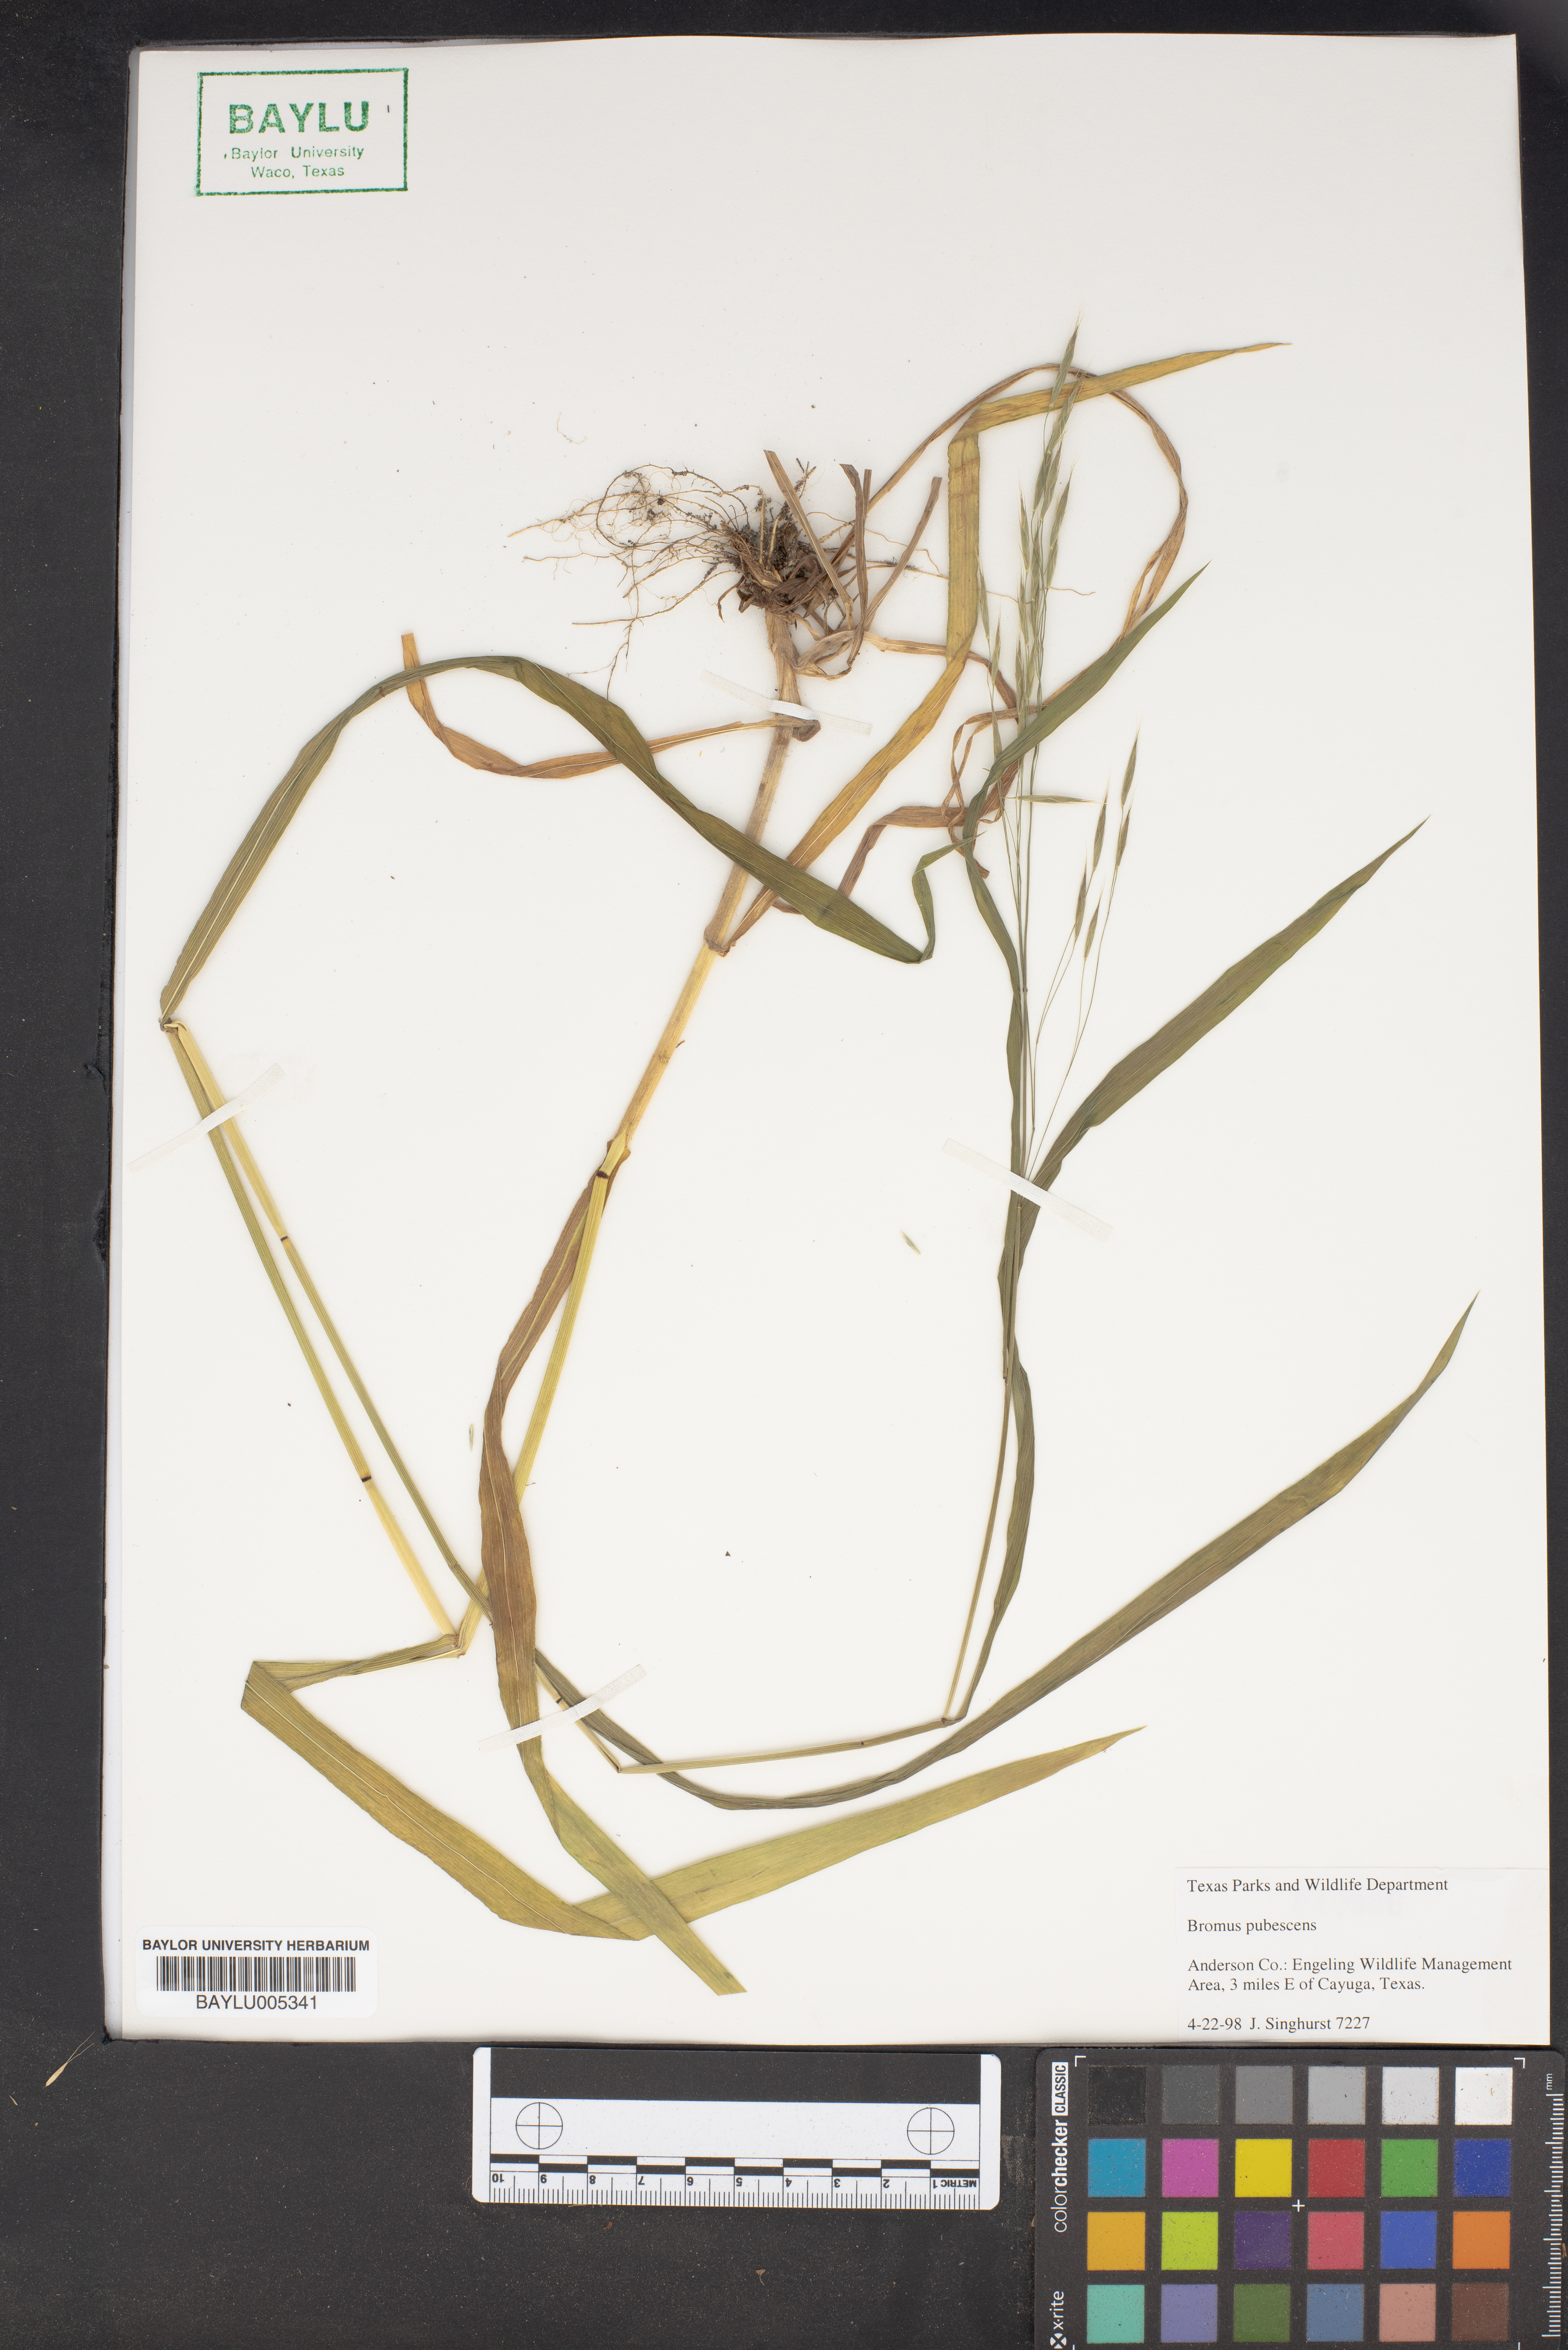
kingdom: Plantae
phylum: Tracheophyta
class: Liliopsida
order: Poales
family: Poaceae
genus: Bromus
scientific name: Bromus pubescens
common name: Hairy wood brome grass
